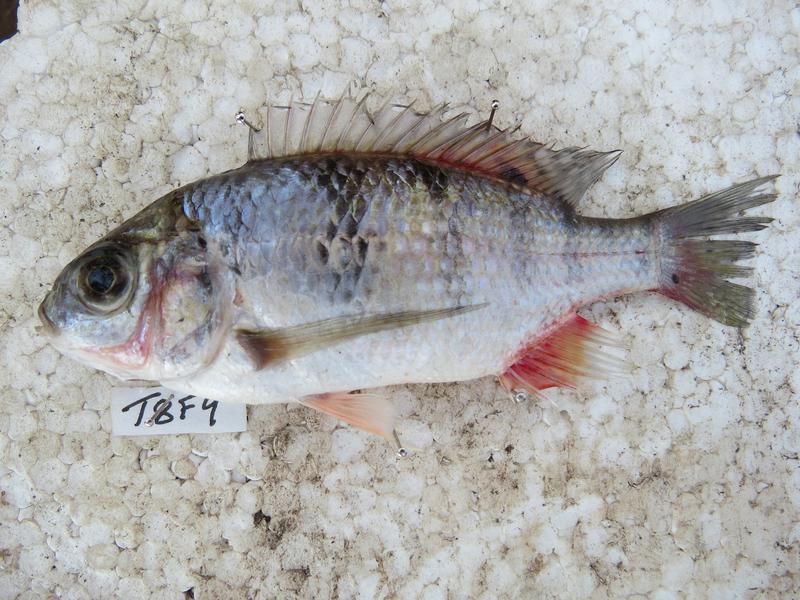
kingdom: Animalia
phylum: Chordata
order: Perciformes
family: Cichlidae
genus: Oreochromis
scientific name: Oreochromis korogwe
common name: Korogwe tilapia
